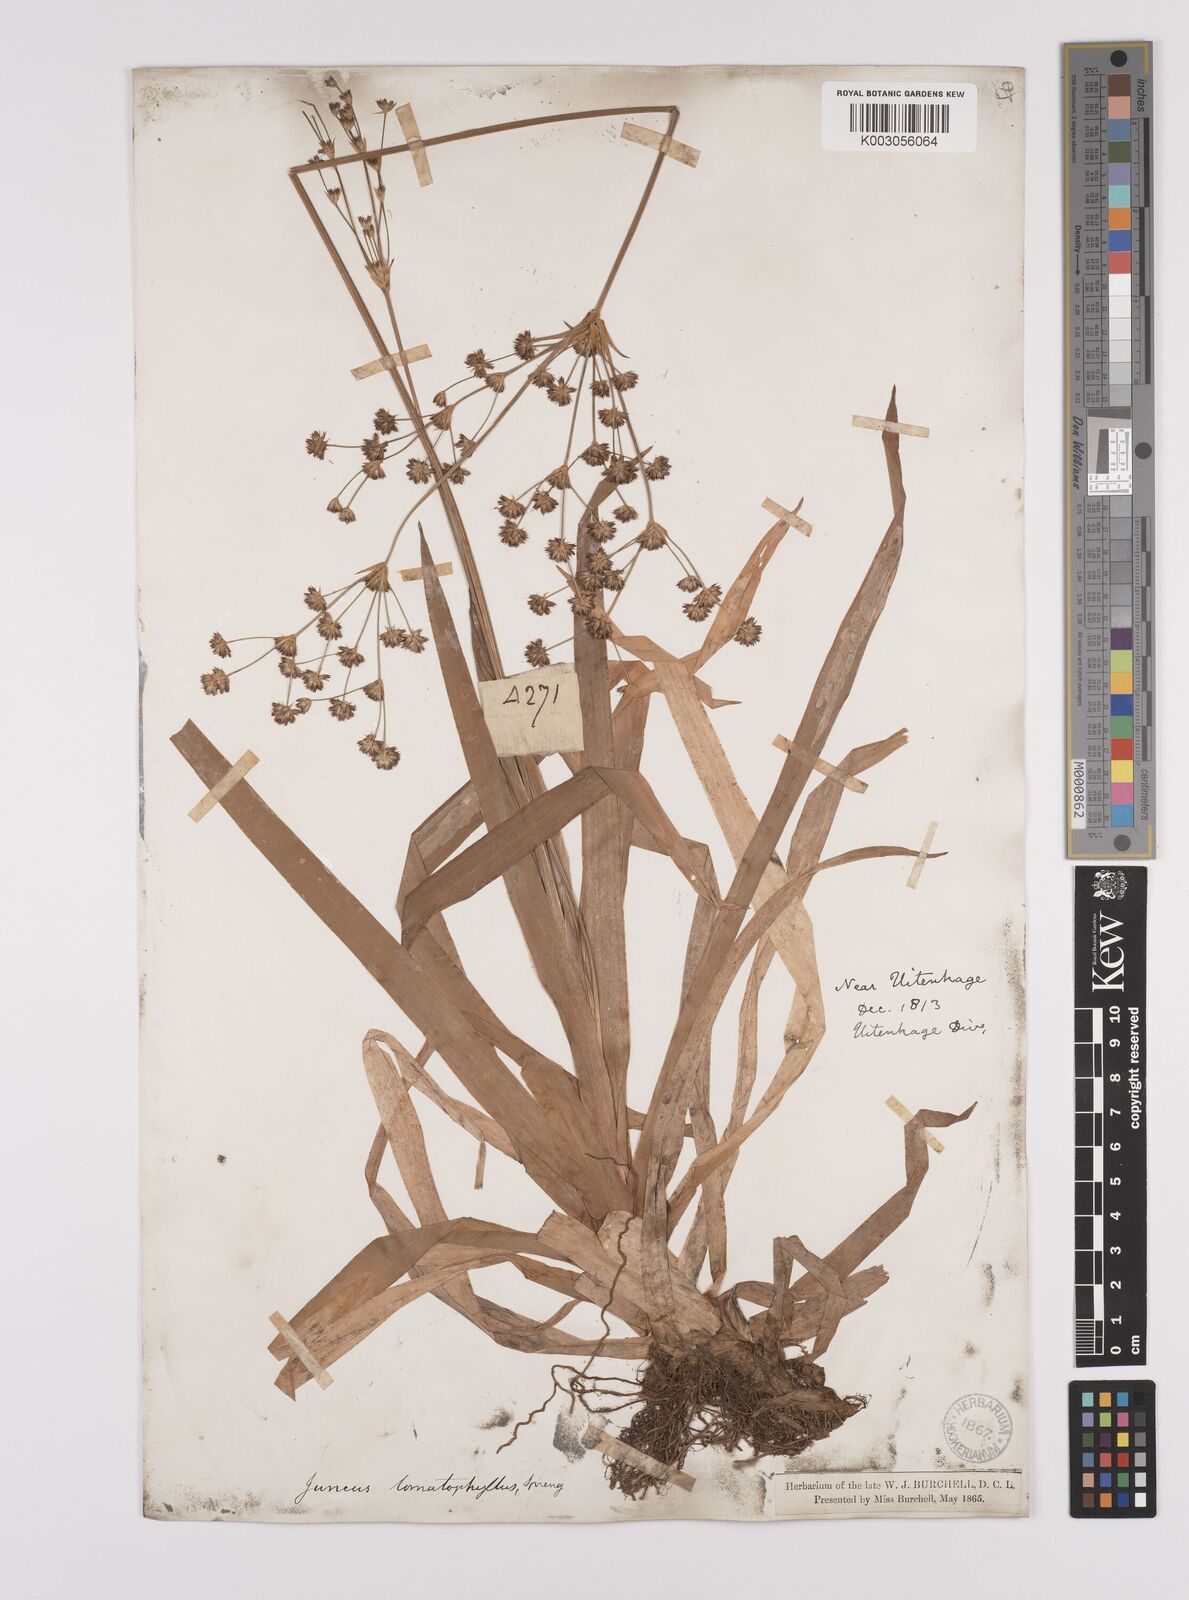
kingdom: Plantae
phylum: Tracheophyta
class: Liliopsida
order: Poales
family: Juncaceae
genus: Juncus
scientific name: Juncus lomatophyllus
